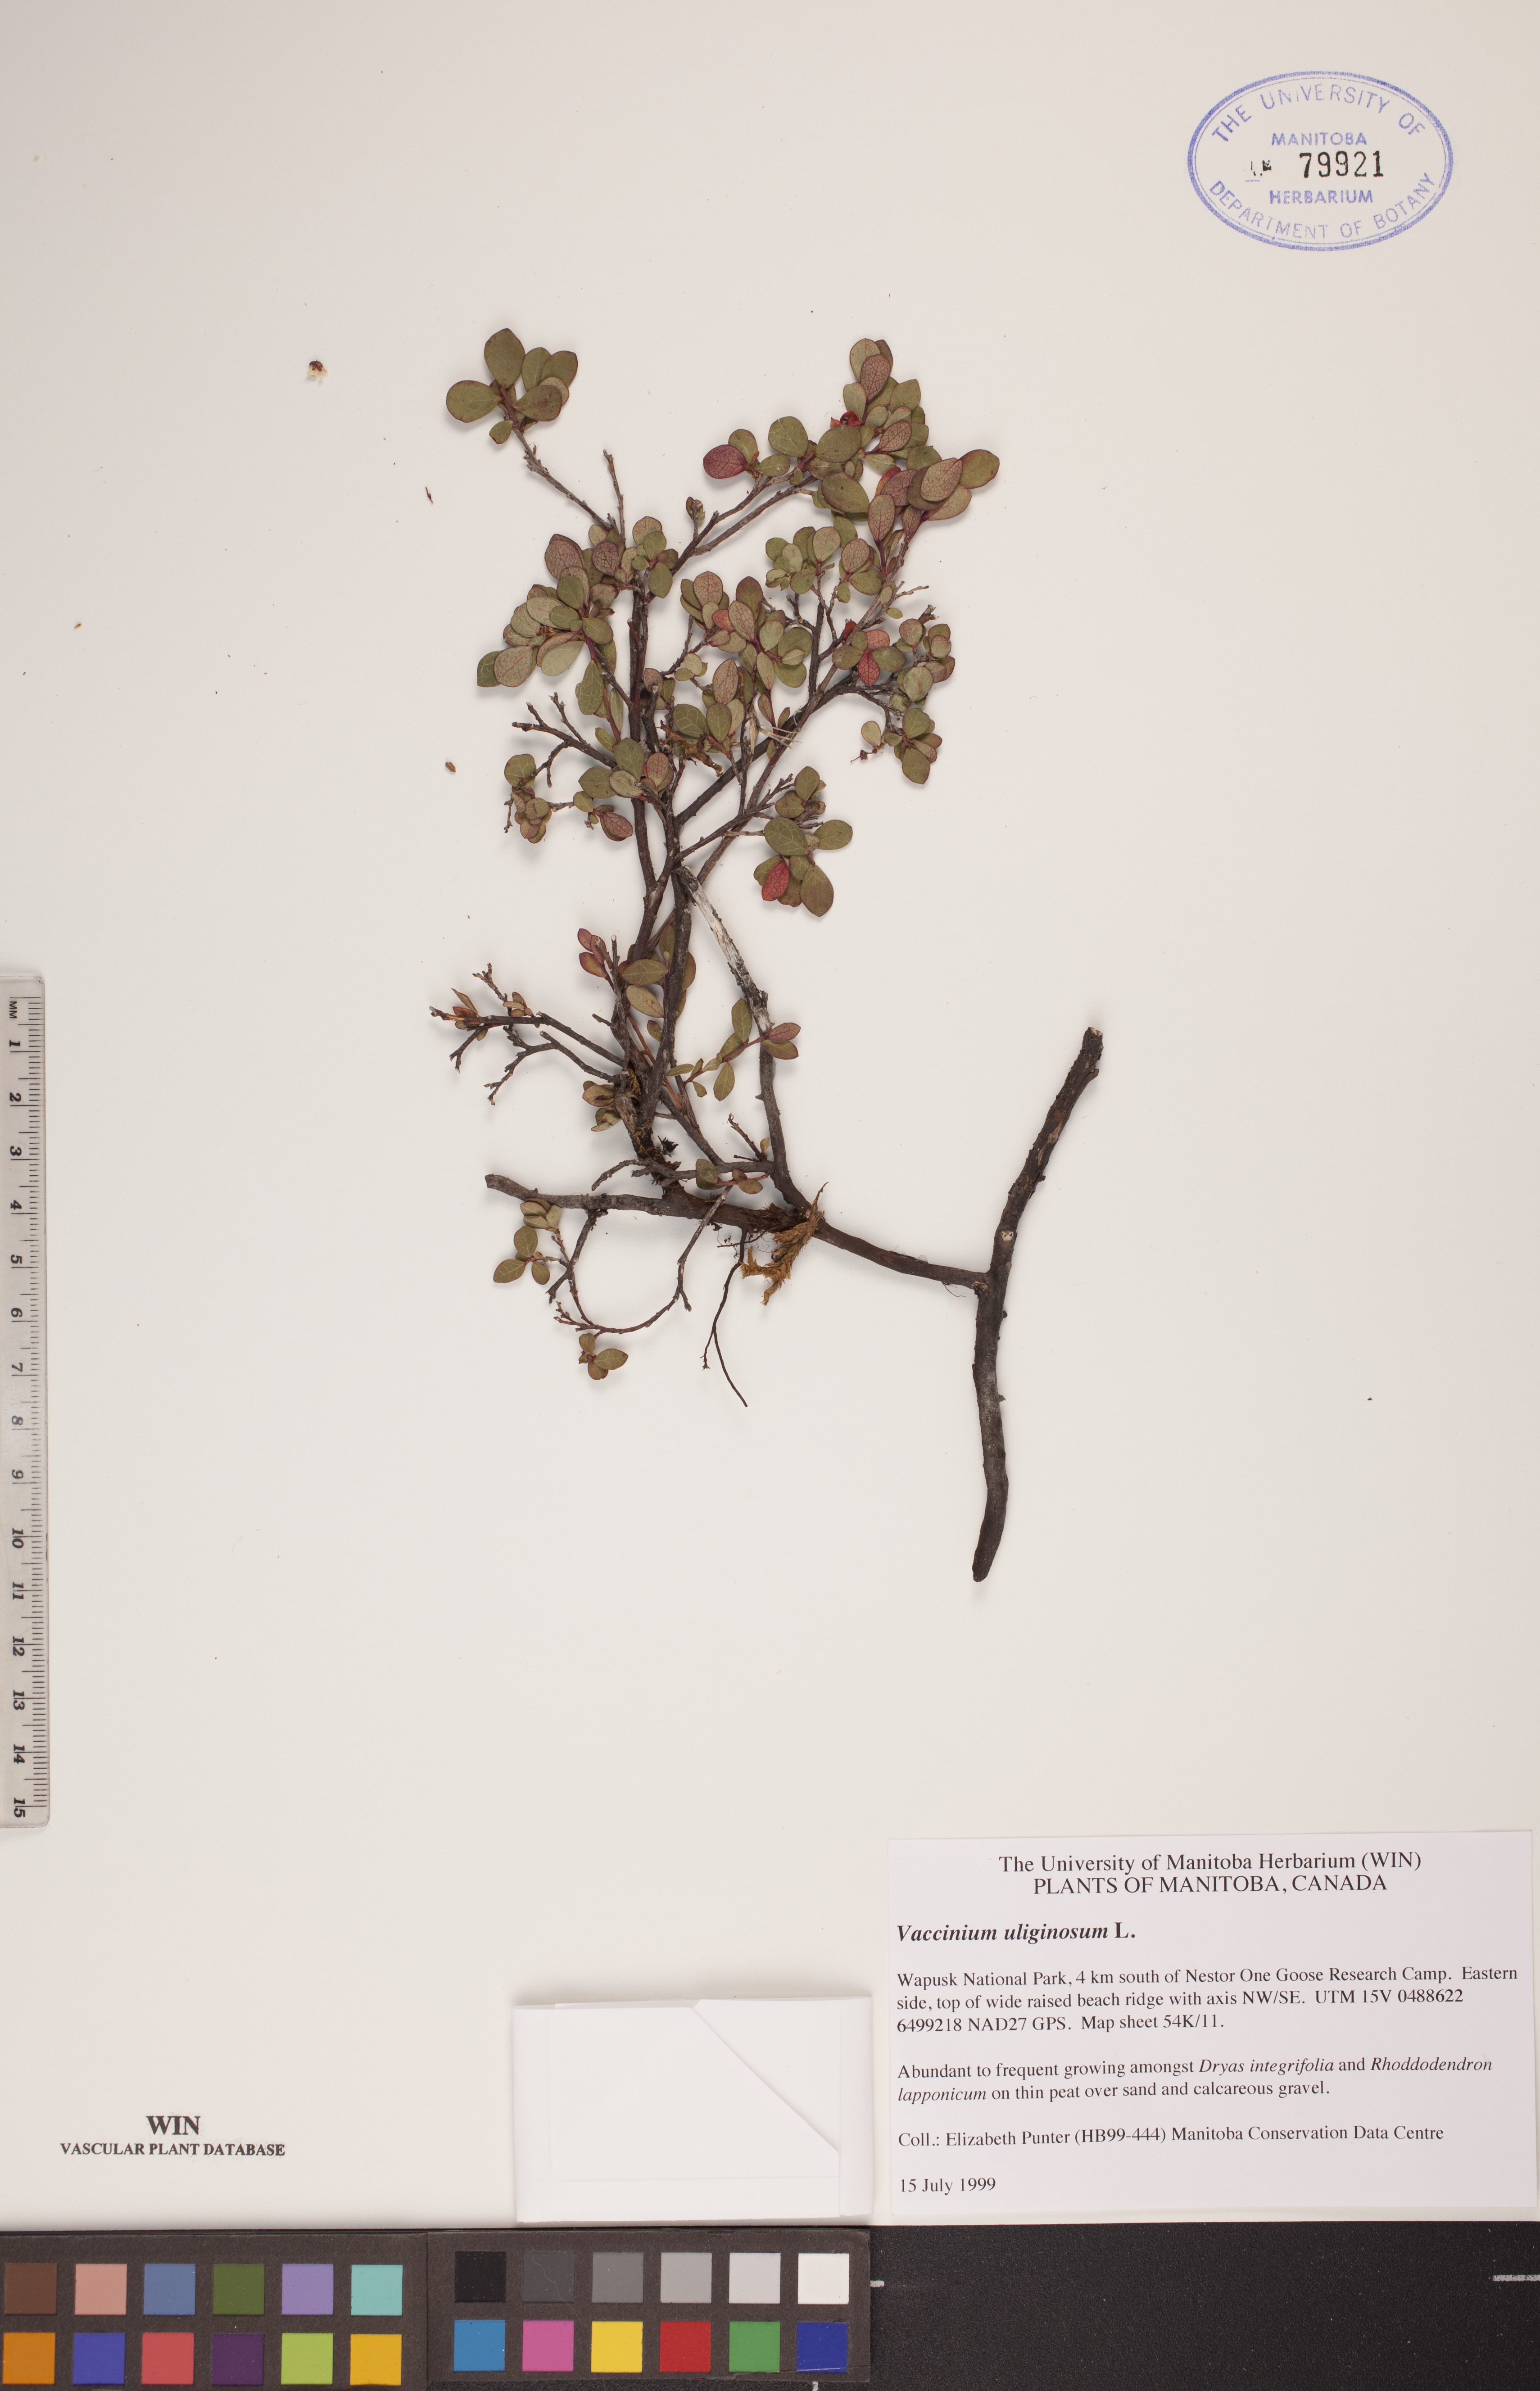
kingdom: Plantae
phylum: Tracheophyta
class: Magnoliopsida
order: Ericales
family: Ericaceae
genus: Vaccinium
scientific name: Vaccinium uliginosum
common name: Bog bilberry
